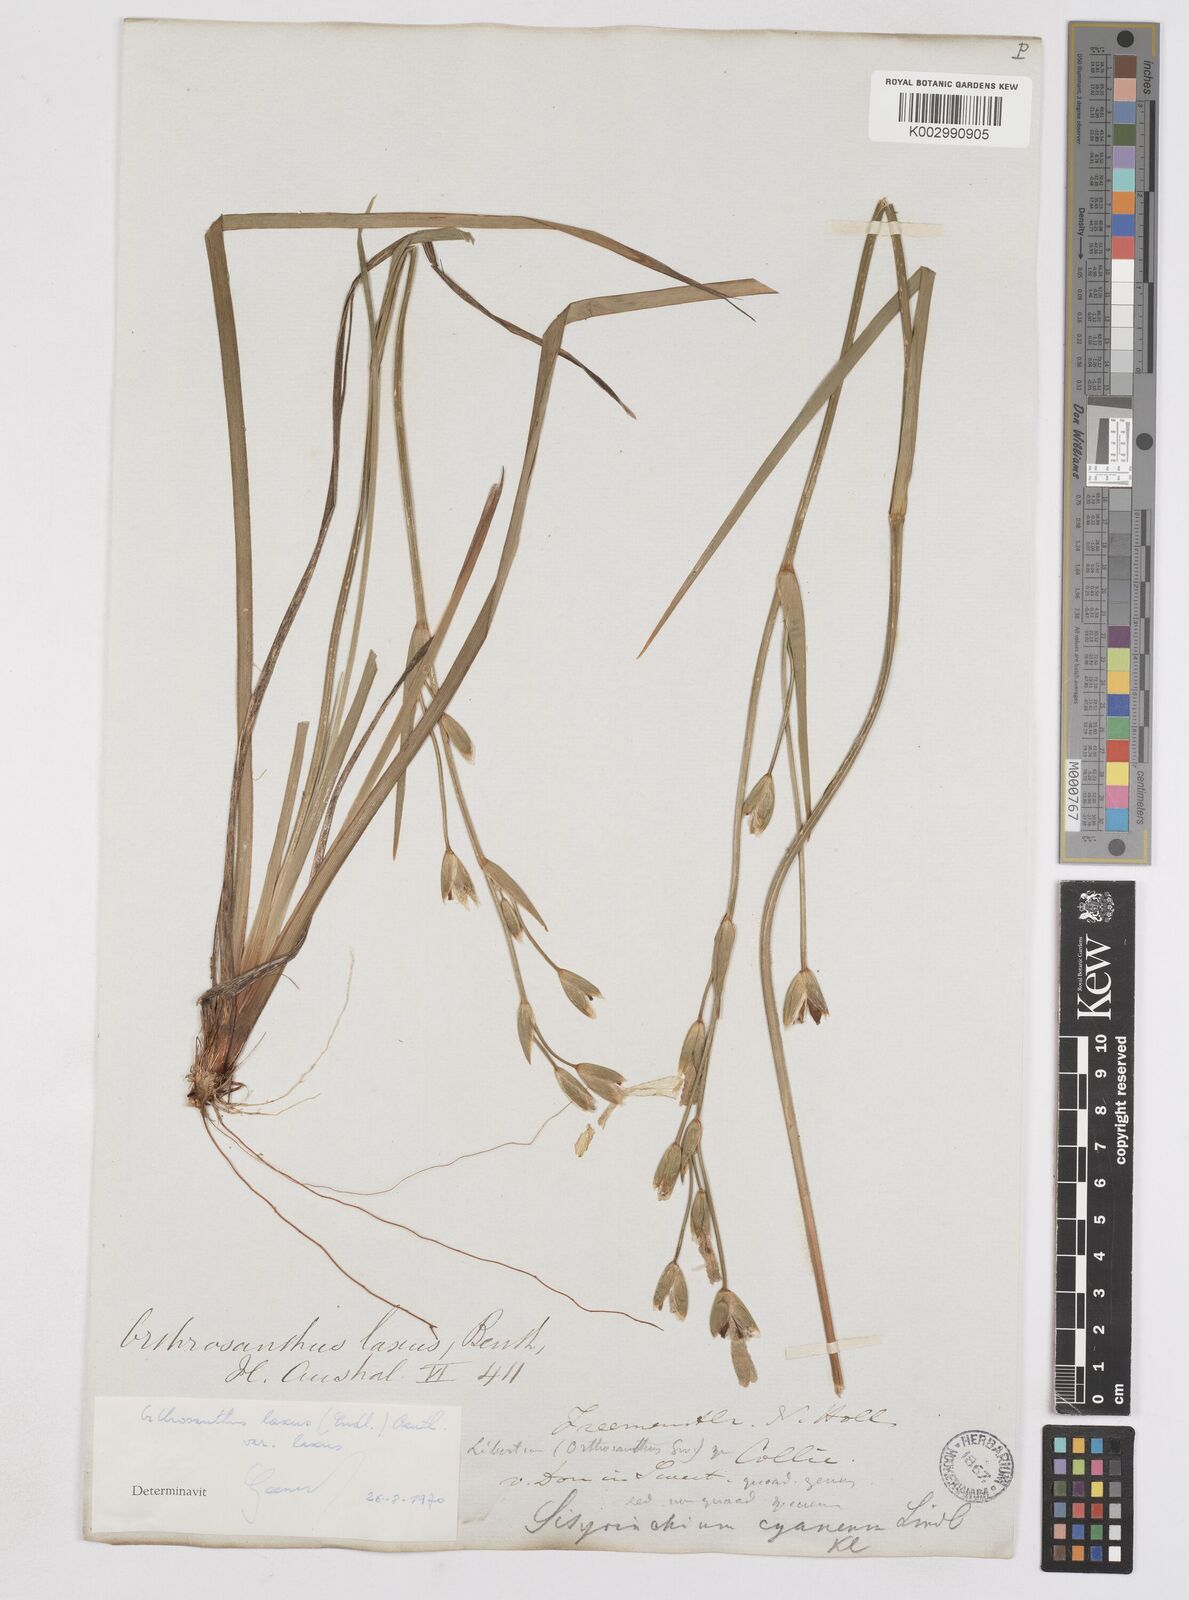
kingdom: Plantae
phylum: Tracheophyta
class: Liliopsida
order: Asparagales
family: Iridaceae
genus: Orthrosanthus
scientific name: Orthrosanthus laxus
